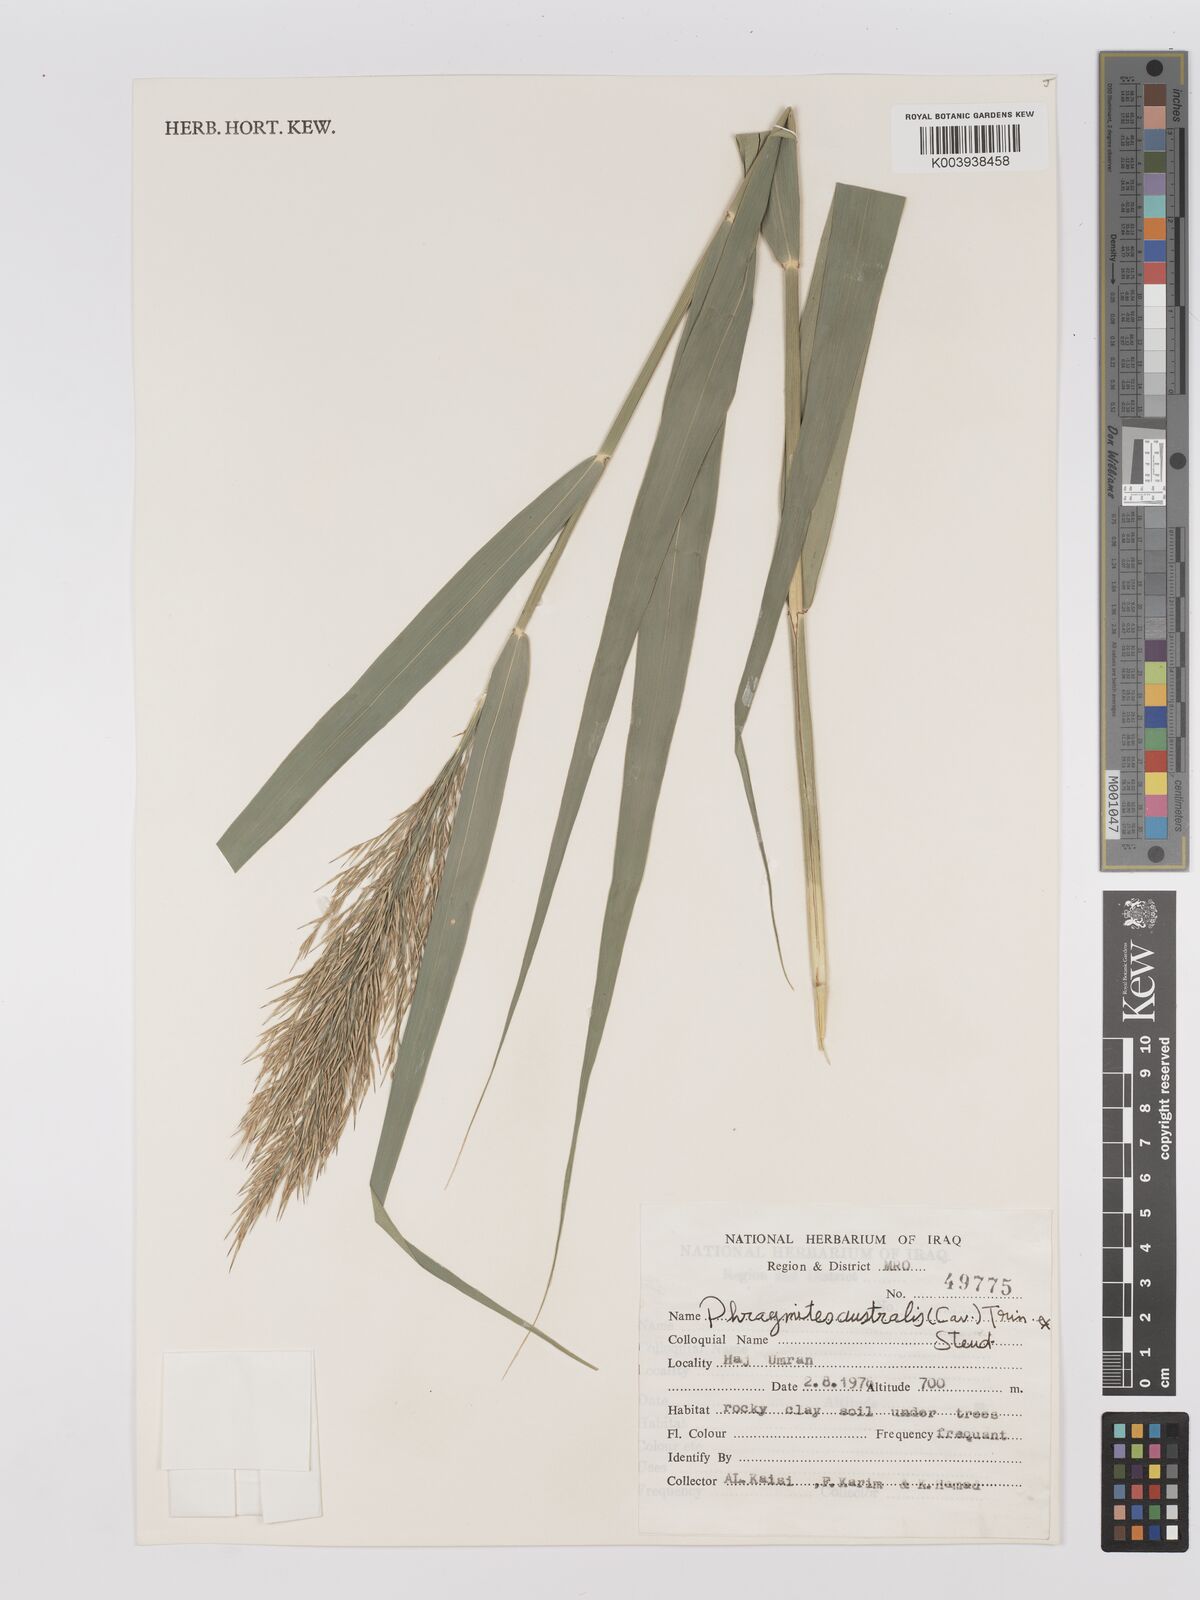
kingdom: Plantae
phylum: Tracheophyta
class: Liliopsida
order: Poales
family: Poaceae
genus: Phragmites
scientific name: Phragmites australis
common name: Common reed
